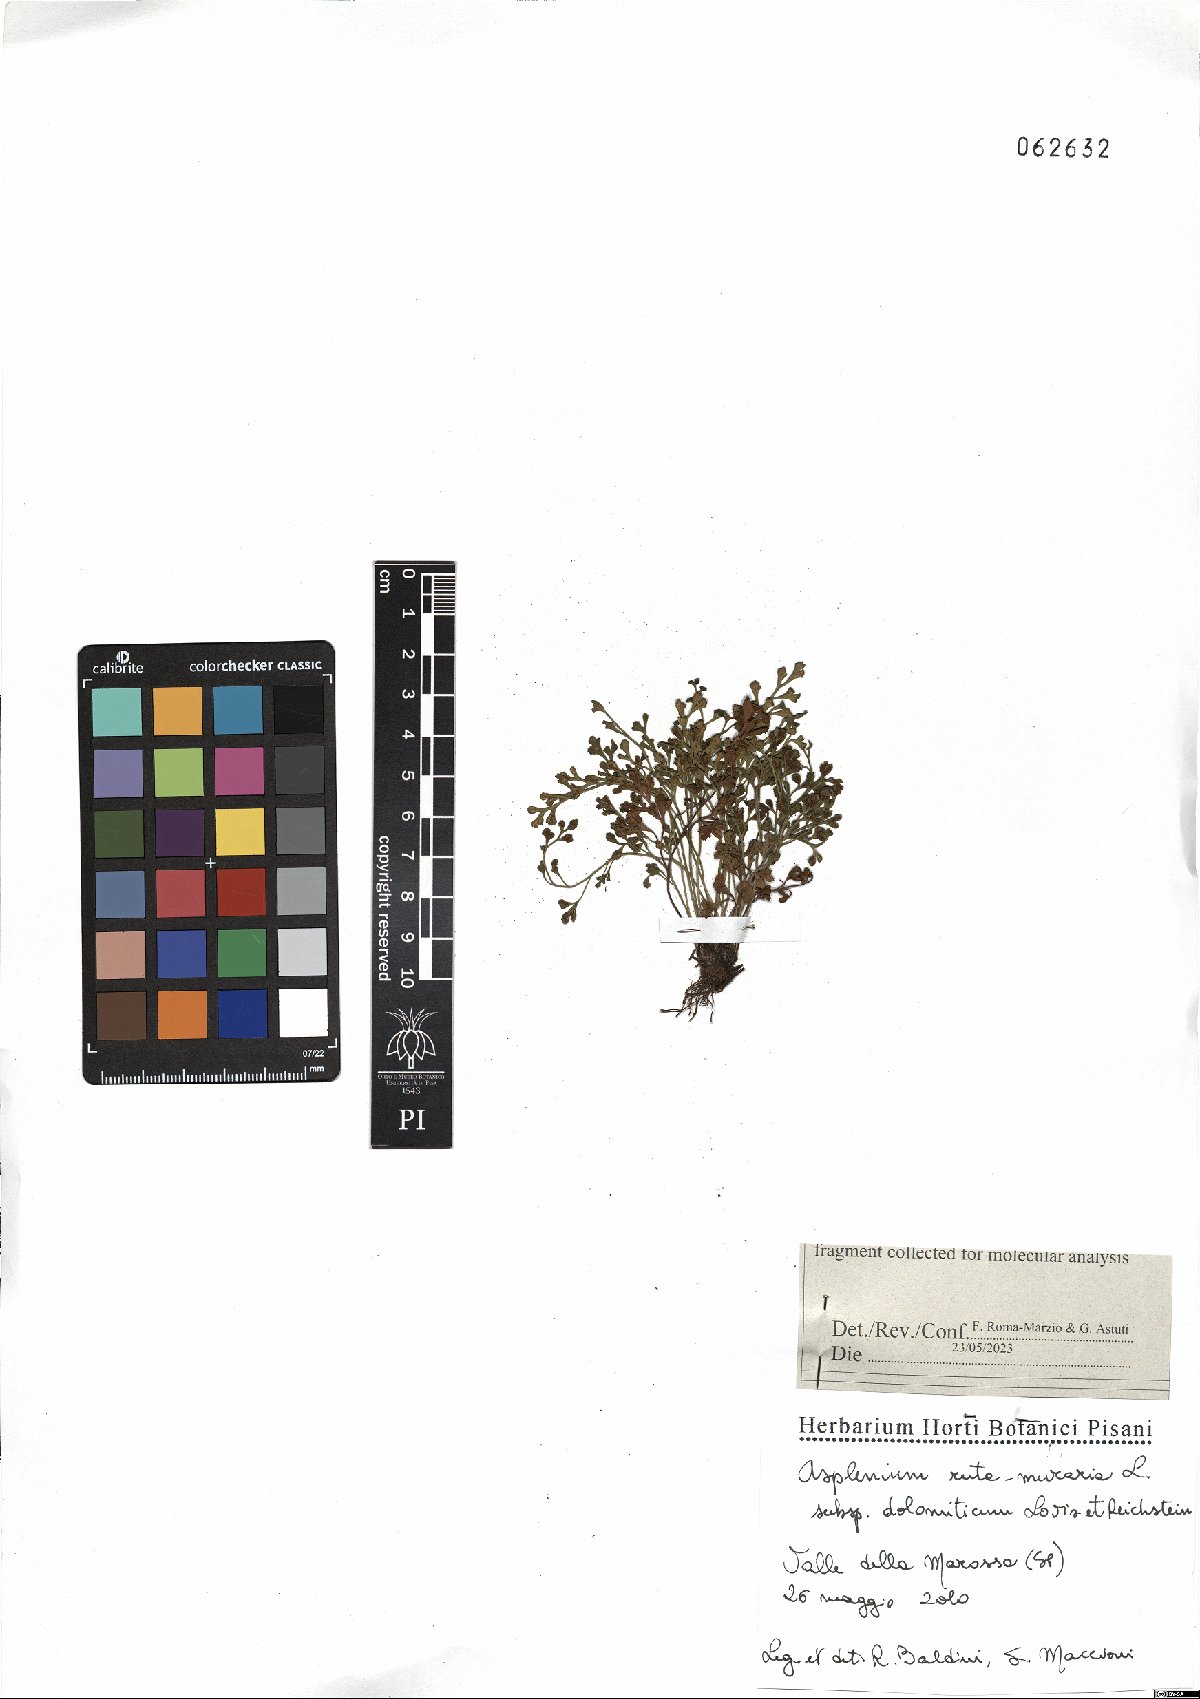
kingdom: Plantae
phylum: Tracheophyta
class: Polypodiopsida
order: Polypodiales
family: Aspleniaceae
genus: Asplenium
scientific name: Asplenium ruta-muraria
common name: Wall-rue
